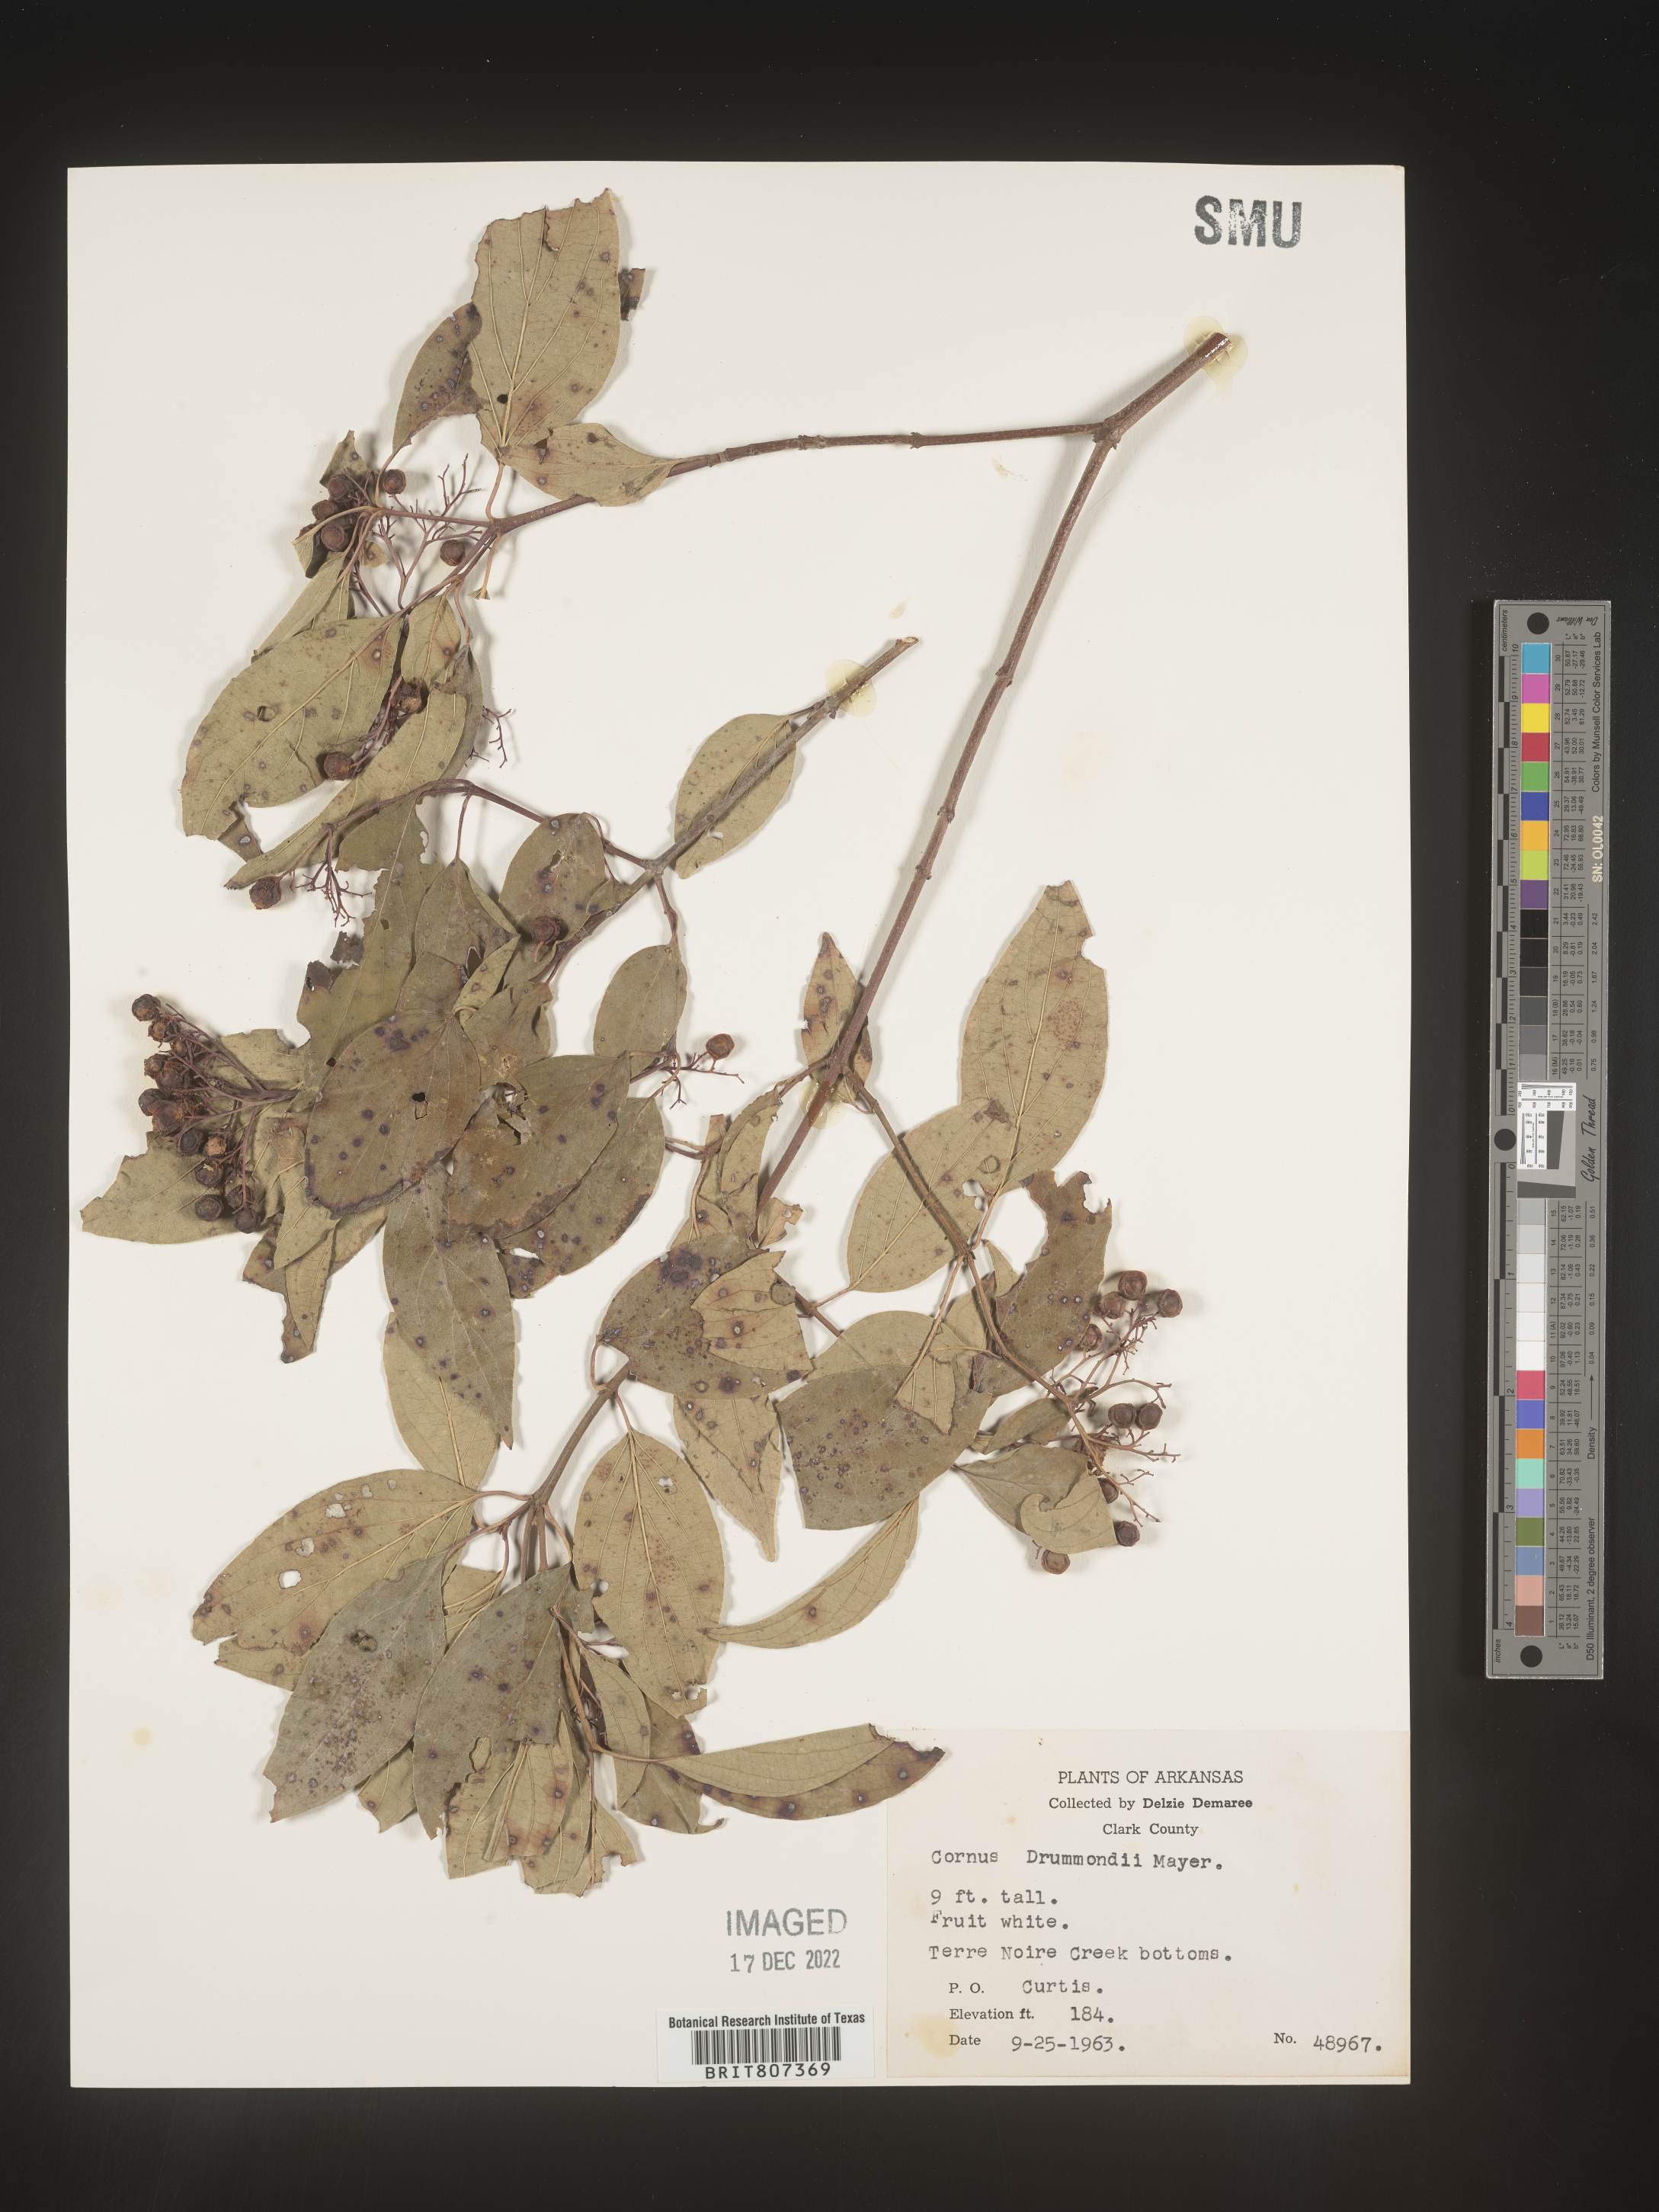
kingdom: Plantae
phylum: Tracheophyta
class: Magnoliopsida
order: Cornales
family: Cornaceae
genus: Cornus
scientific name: Cornus drummondii
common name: Rough-leaf dogwood
